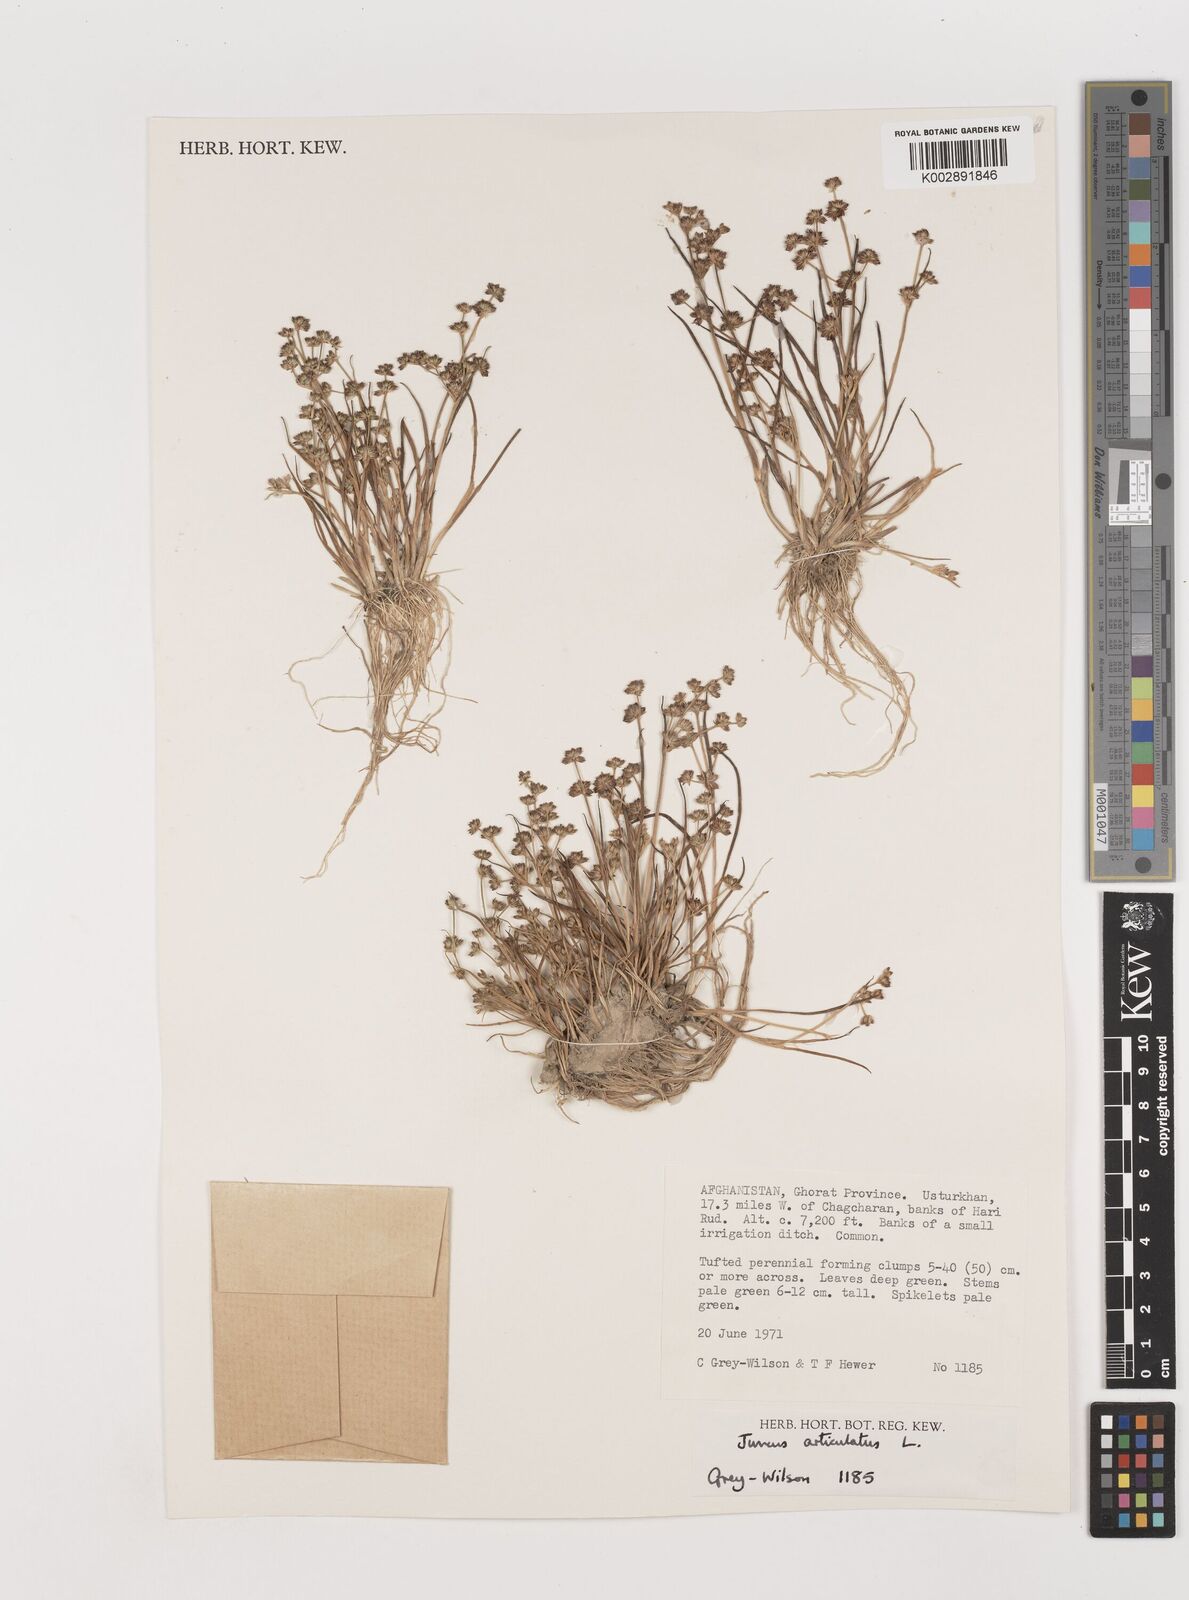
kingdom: Plantae
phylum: Tracheophyta
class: Liliopsida
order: Poales
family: Juncaceae
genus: Juncus
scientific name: Juncus articulatus
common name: Jointed rush
